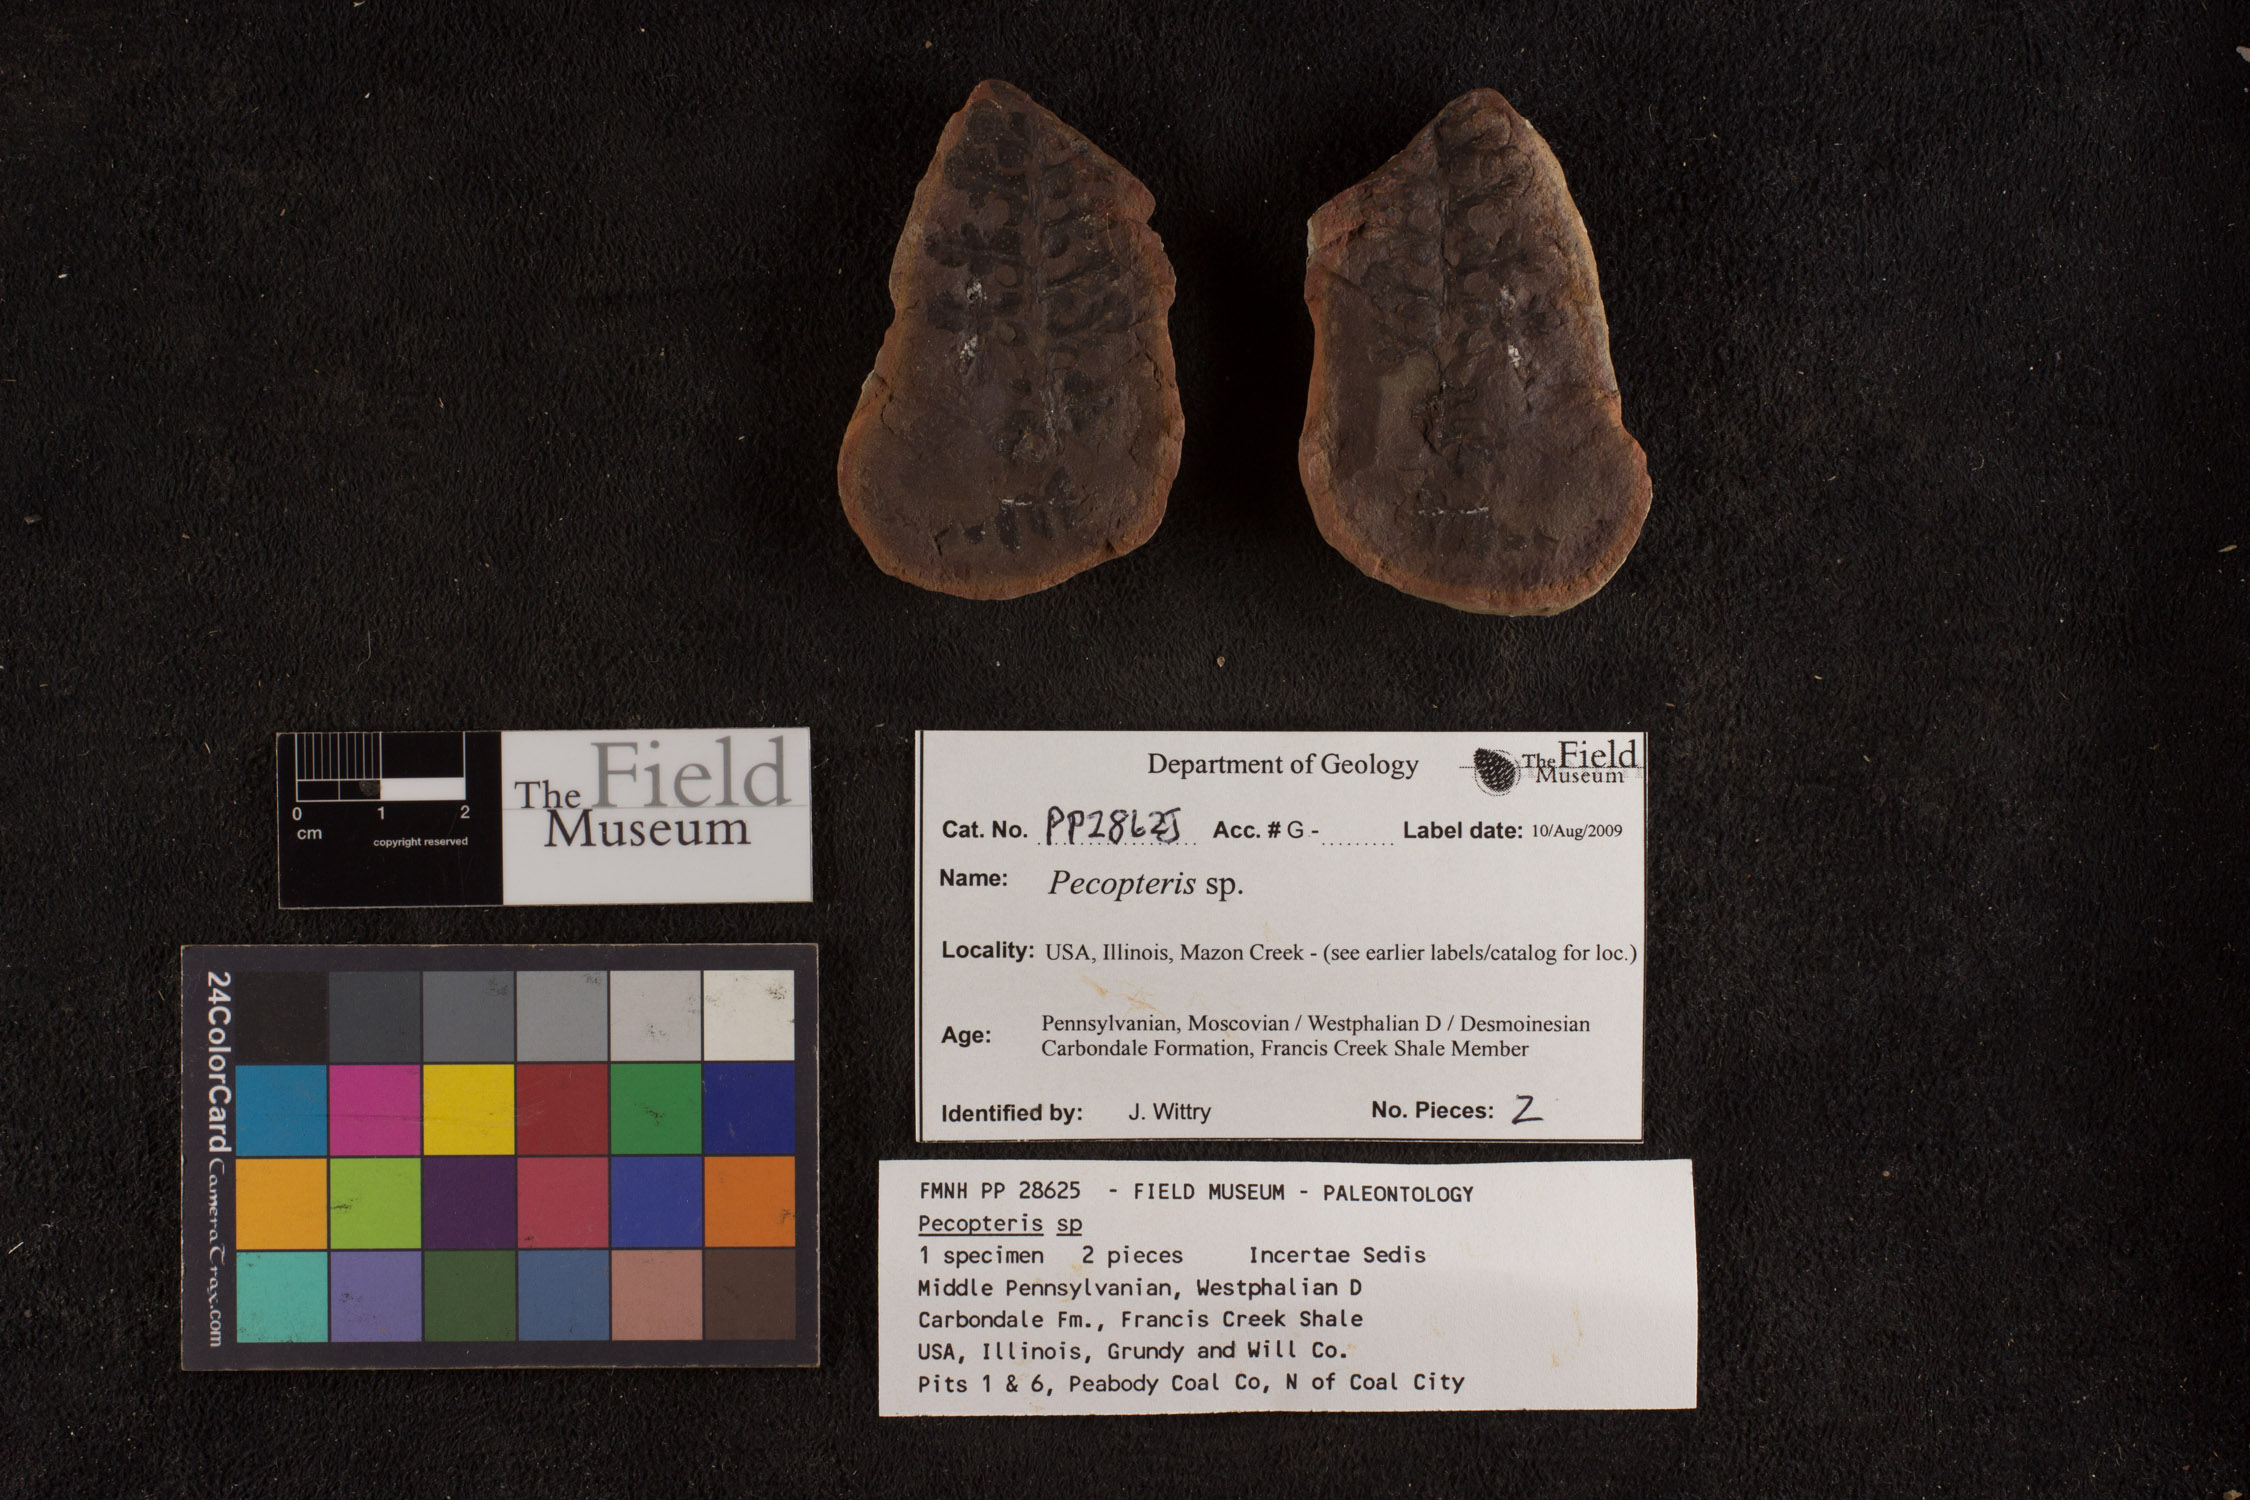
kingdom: Plantae
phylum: Tracheophyta
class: Polypodiopsida
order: Marattiales
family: Asterothecaceae
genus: Pecopteris
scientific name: Pecopteris
